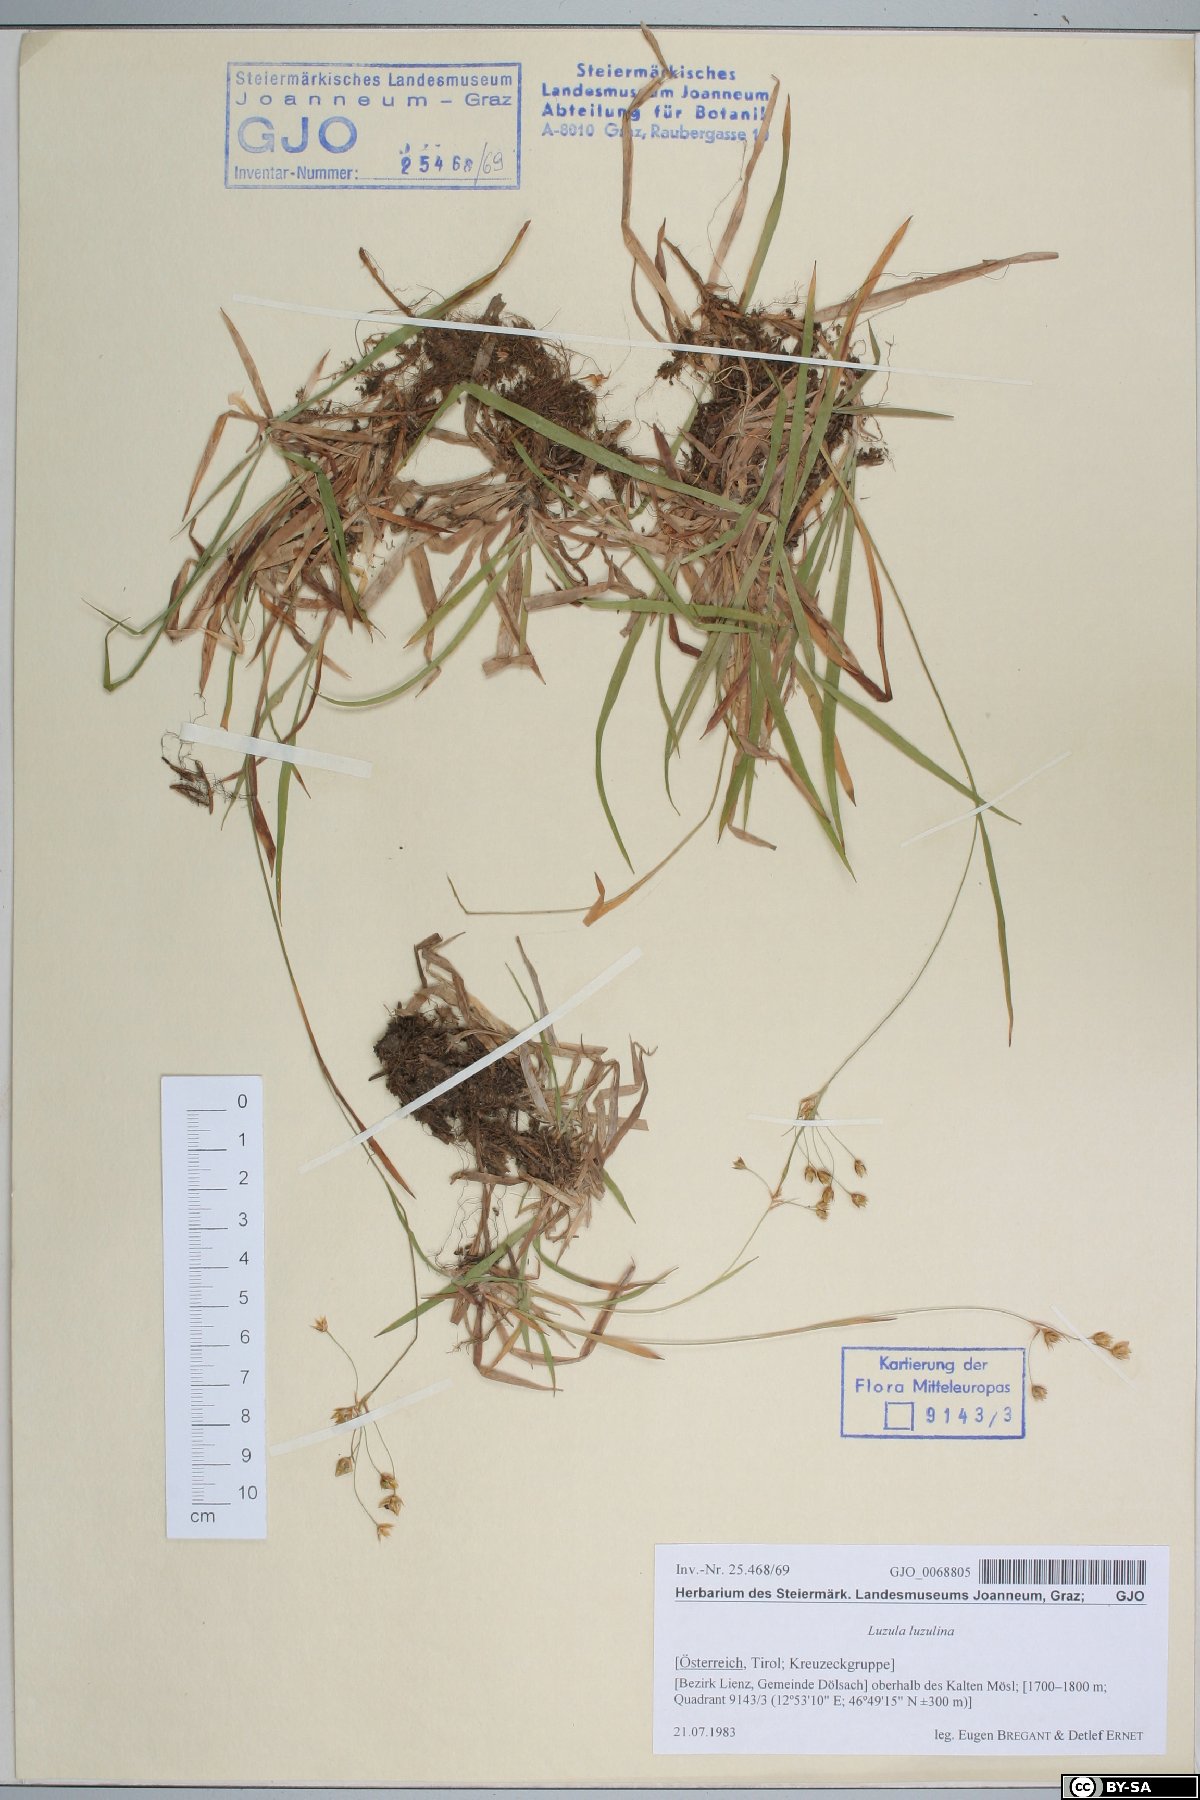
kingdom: Plantae
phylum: Tracheophyta
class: Liliopsida
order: Poales
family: Juncaceae
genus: Luzula
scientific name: Luzula luzulina
